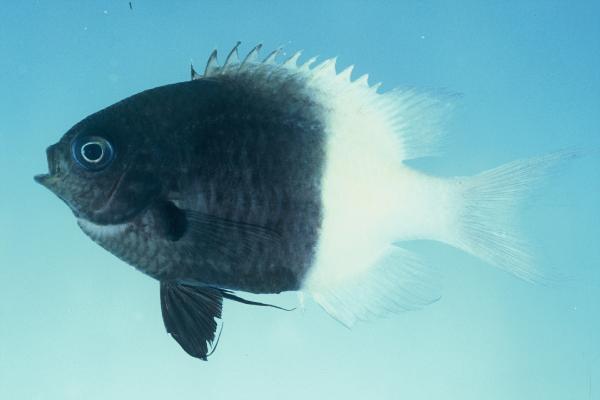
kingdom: Animalia
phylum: Chordata
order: Perciformes
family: Pomacentridae
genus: Chromis
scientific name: Chromis dimidiata
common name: Half-and-half chromis
